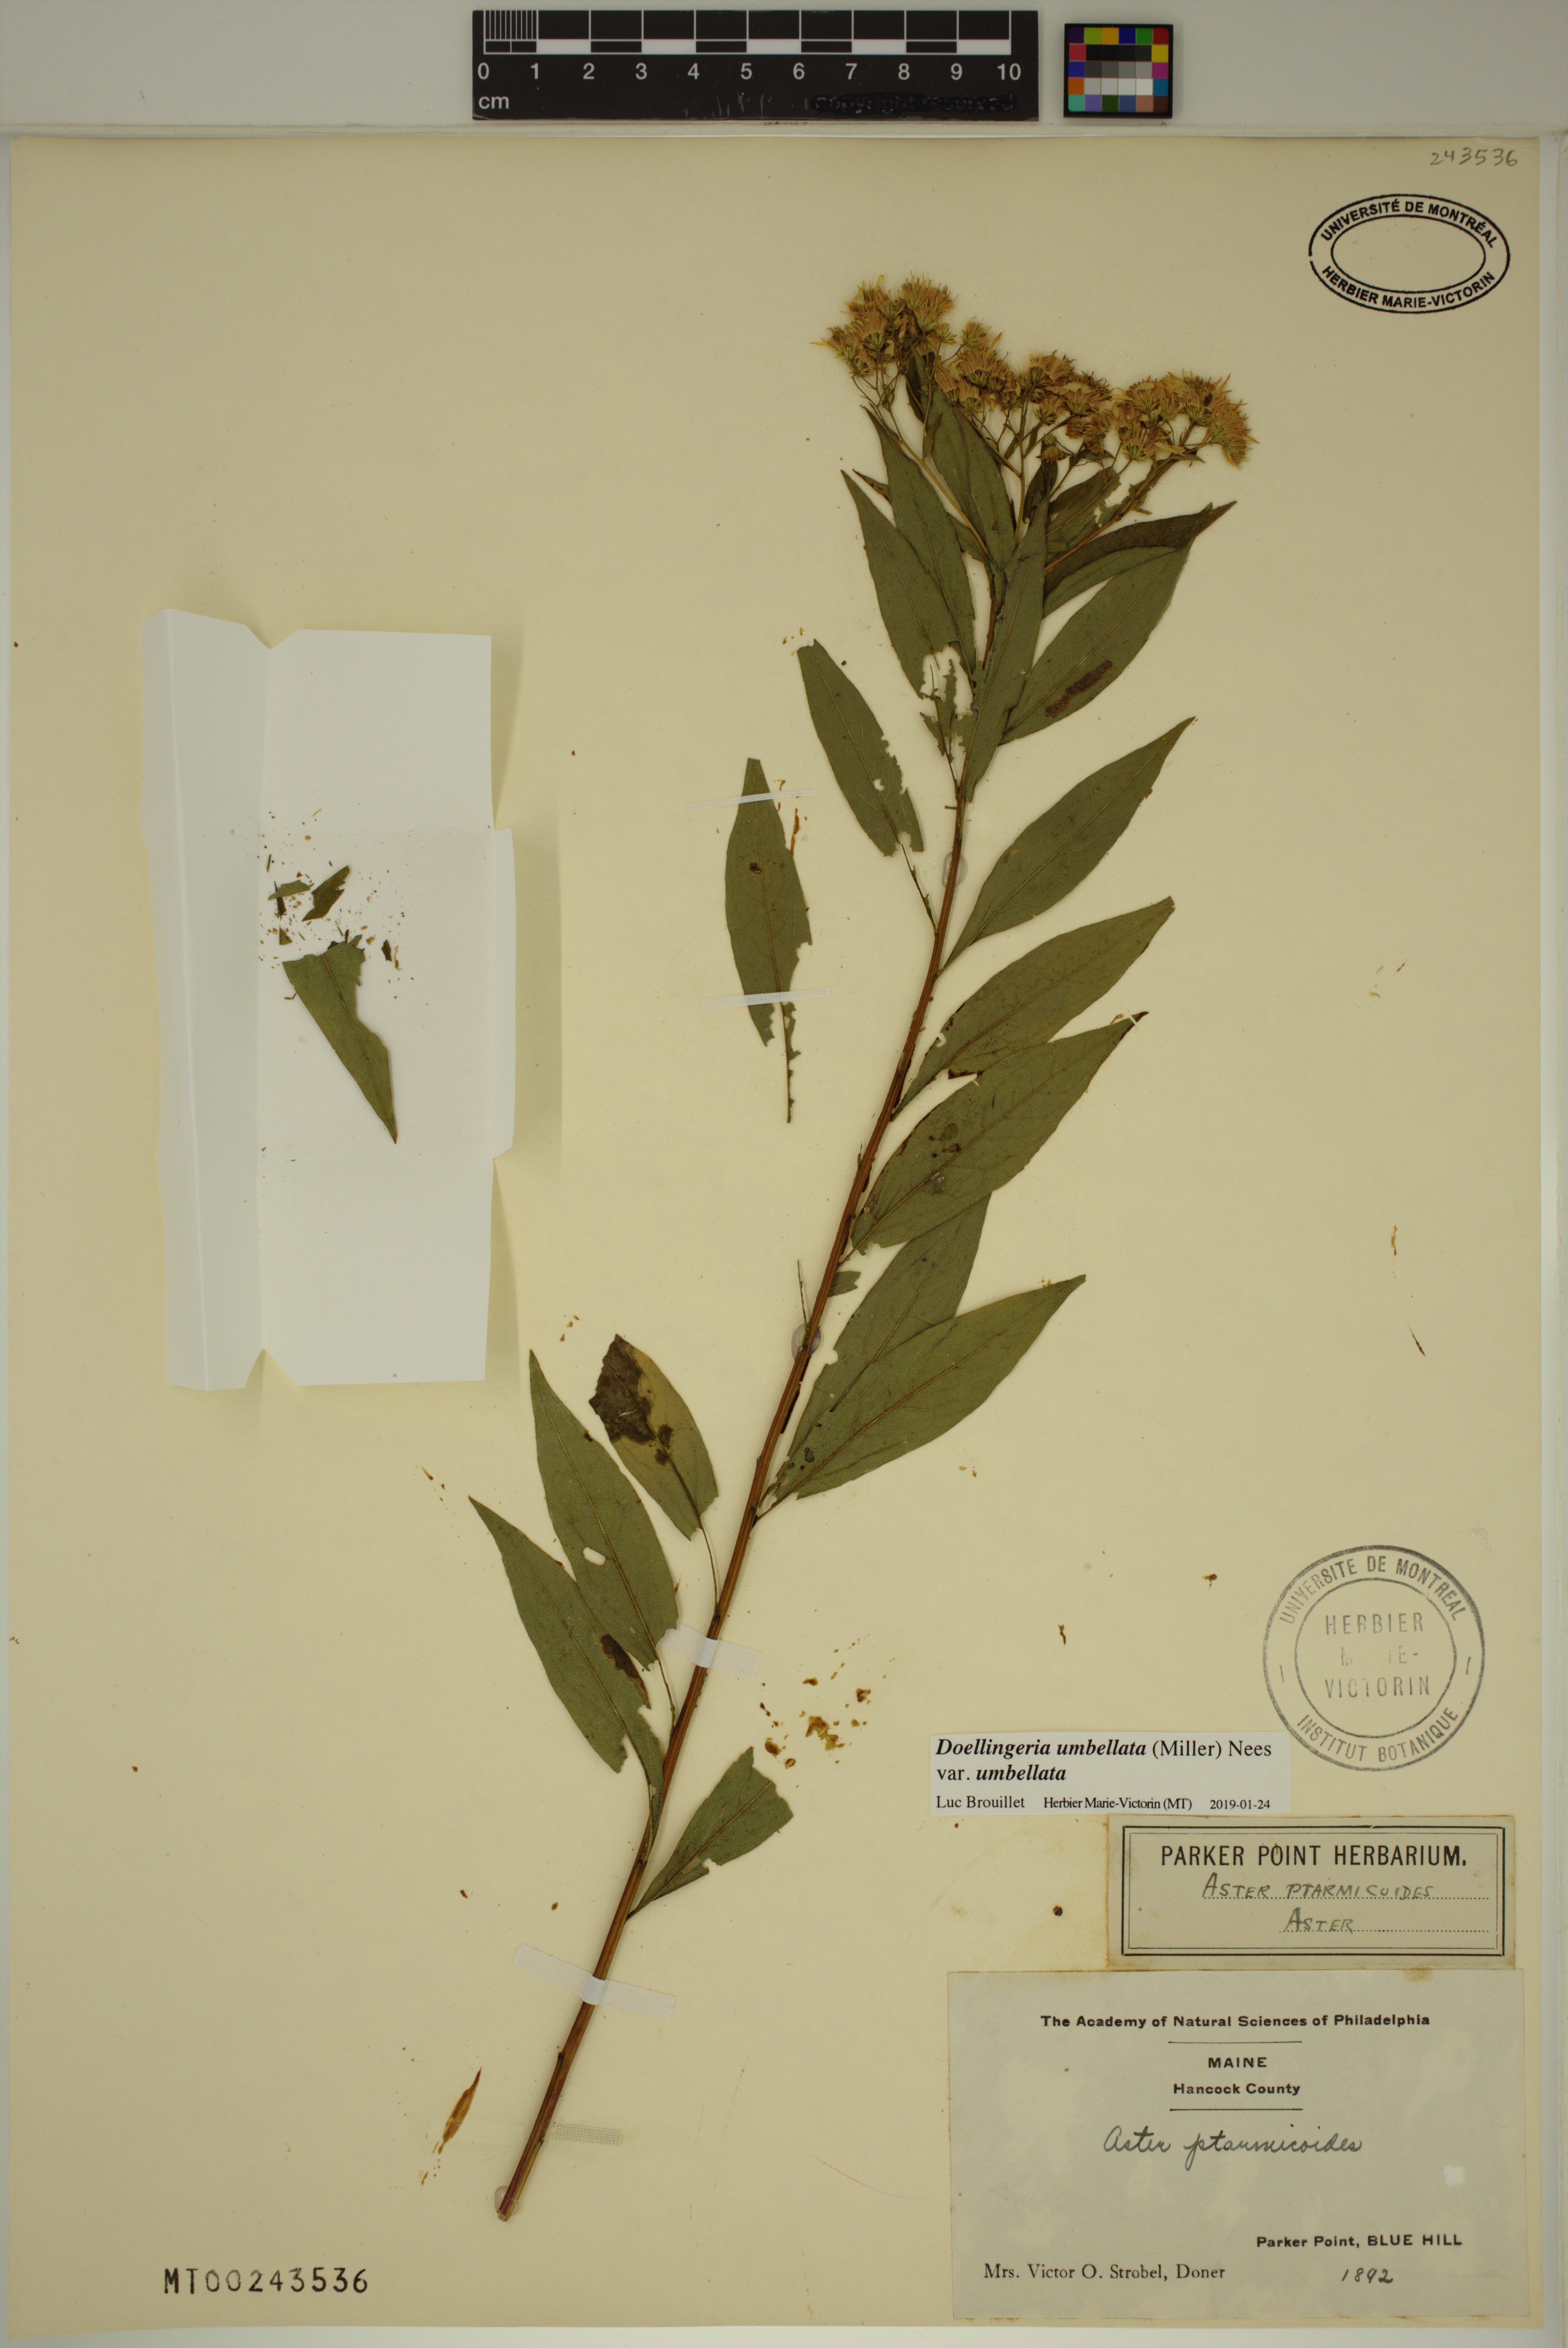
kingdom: Plantae
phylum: Tracheophyta
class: Magnoliopsida
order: Asterales
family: Asteraceae
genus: Doellingeria
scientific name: Doellingeria umbellata
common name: Flat-top white aster
